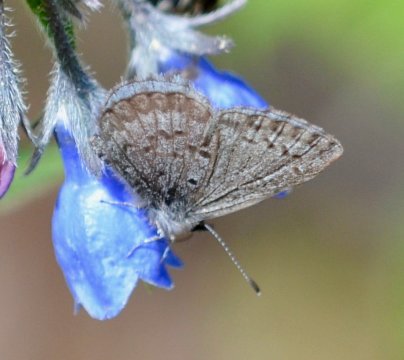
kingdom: Animalia
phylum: Arthropoda
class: Insecta
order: Lepidoptera
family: Lycaenidae
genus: Celastrina
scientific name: Celastrina lucia
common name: Northern Spring Azure
